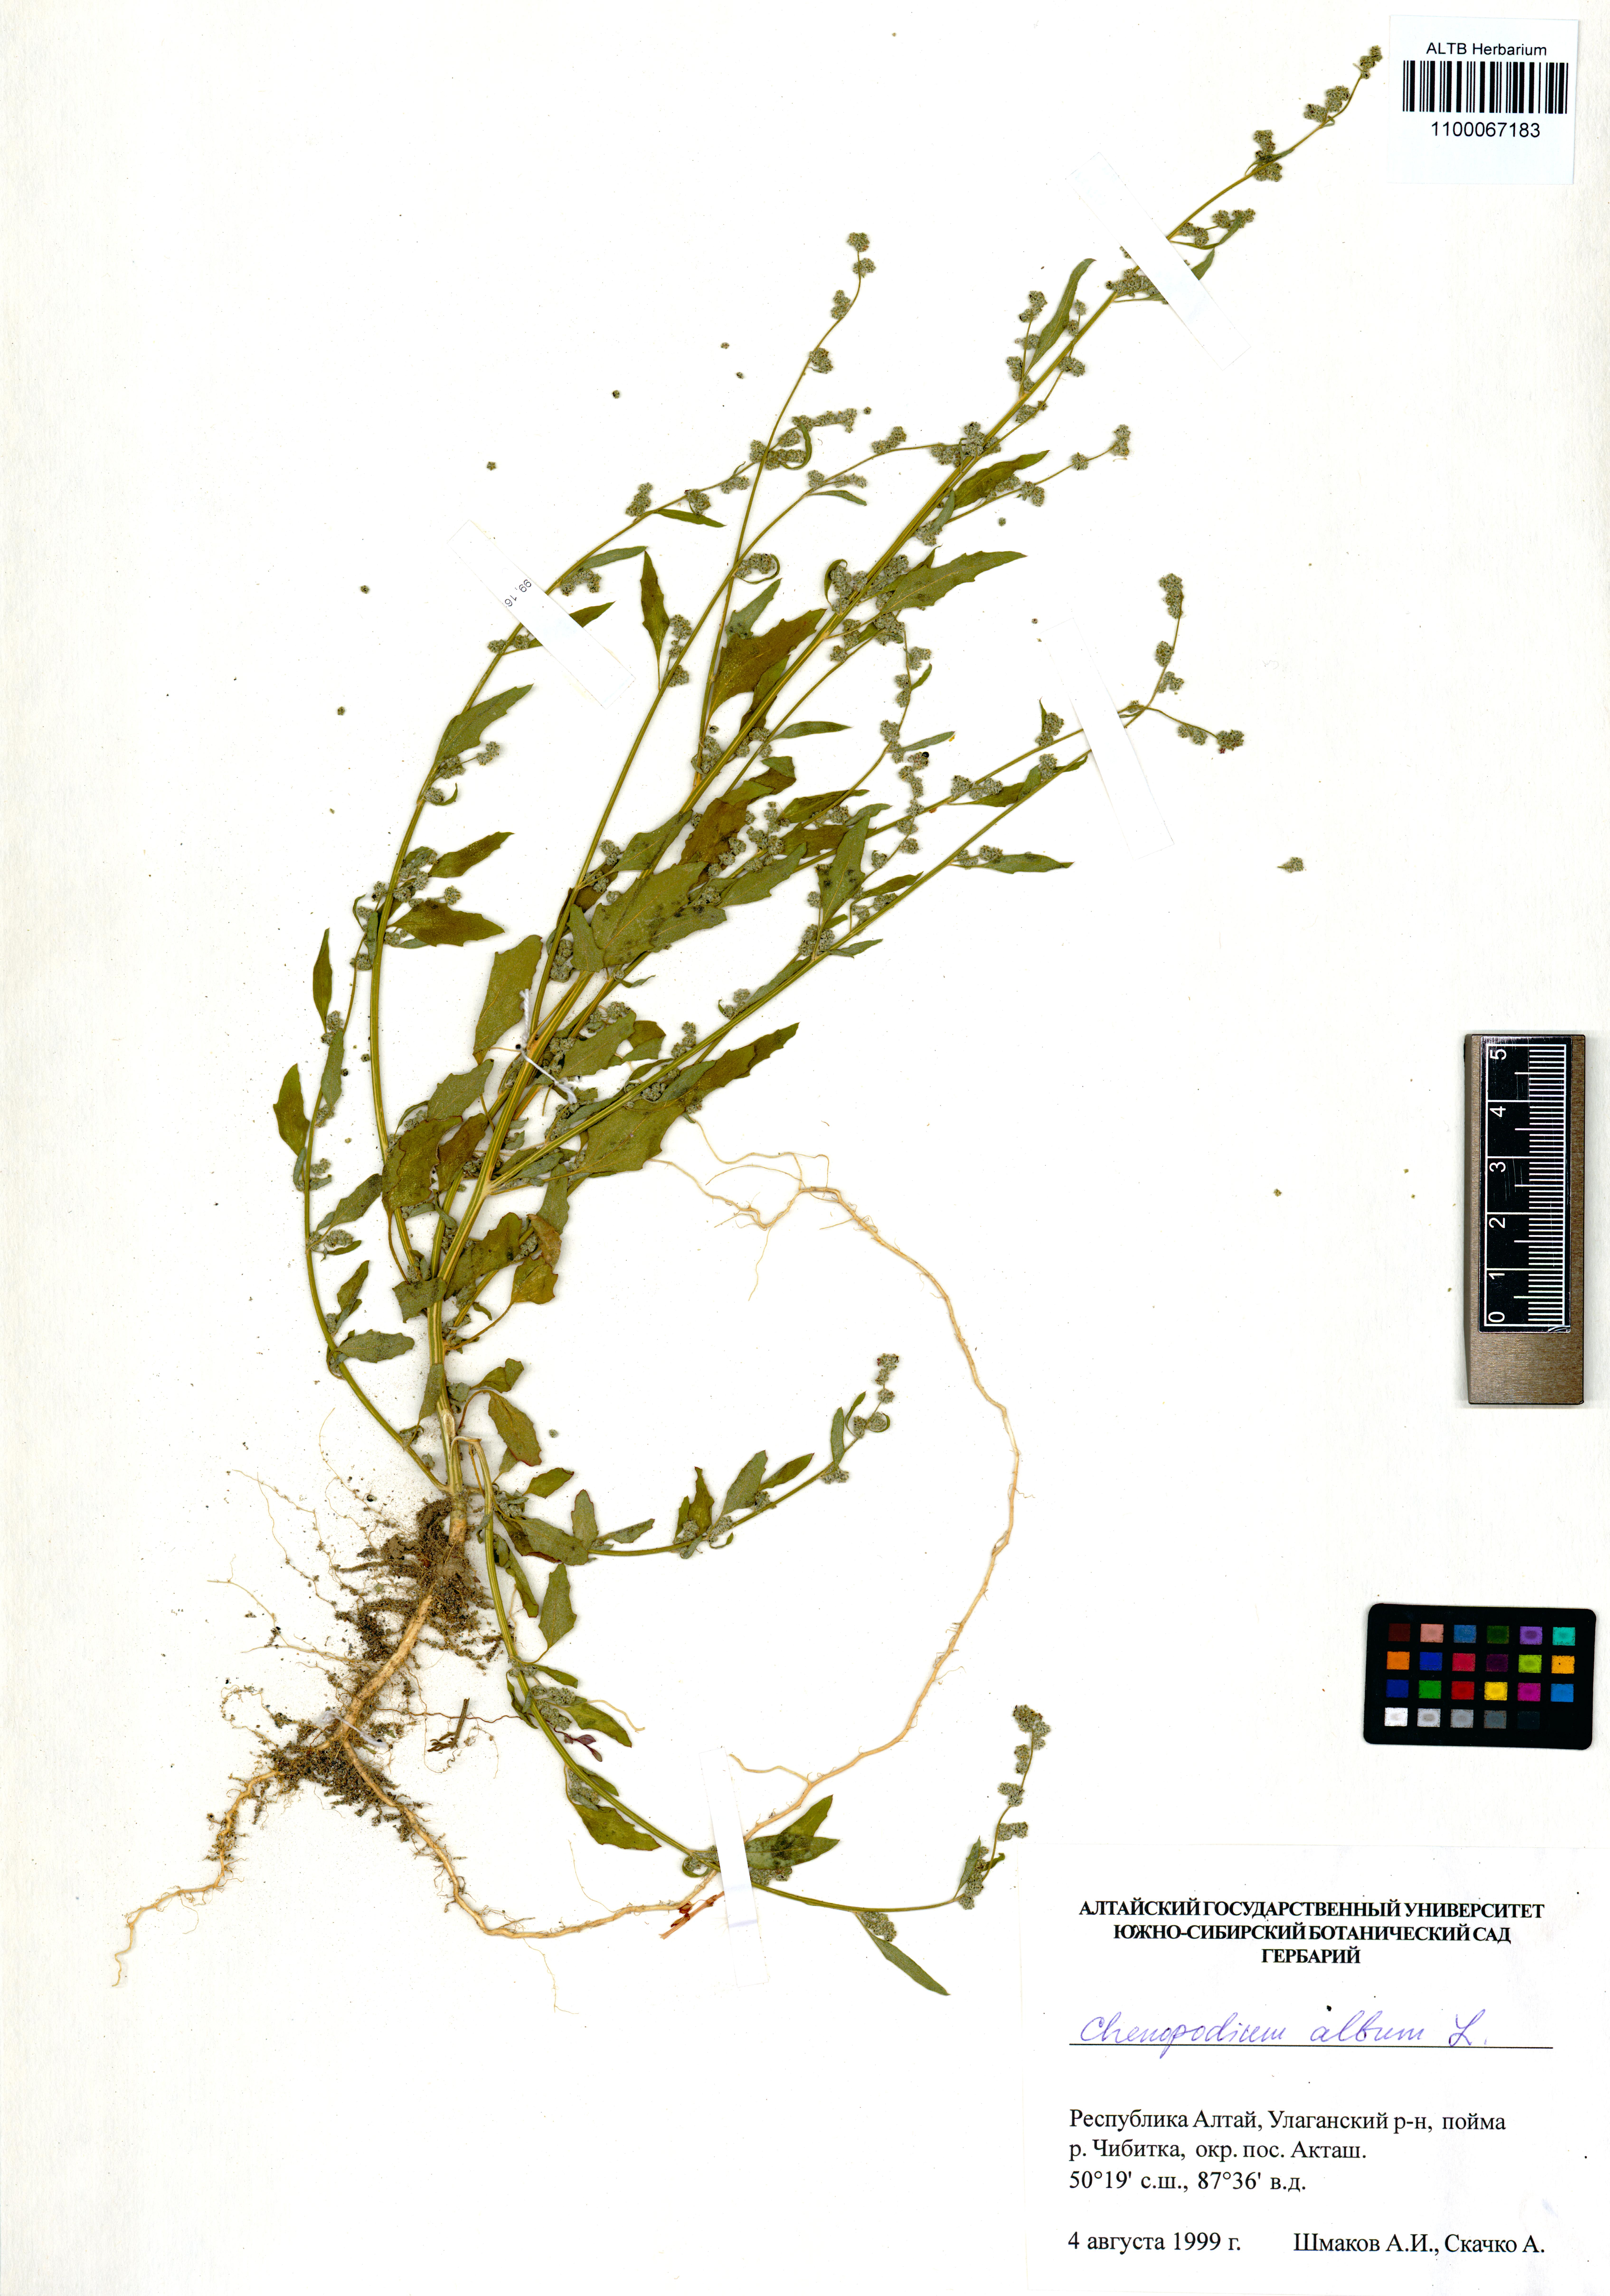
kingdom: Plantae
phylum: Tracheophyta
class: Magnoliopsida
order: Caryophyllales
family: Amaranthaceae
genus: Chenopodium
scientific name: Chenopodium album
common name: Fat-hen
